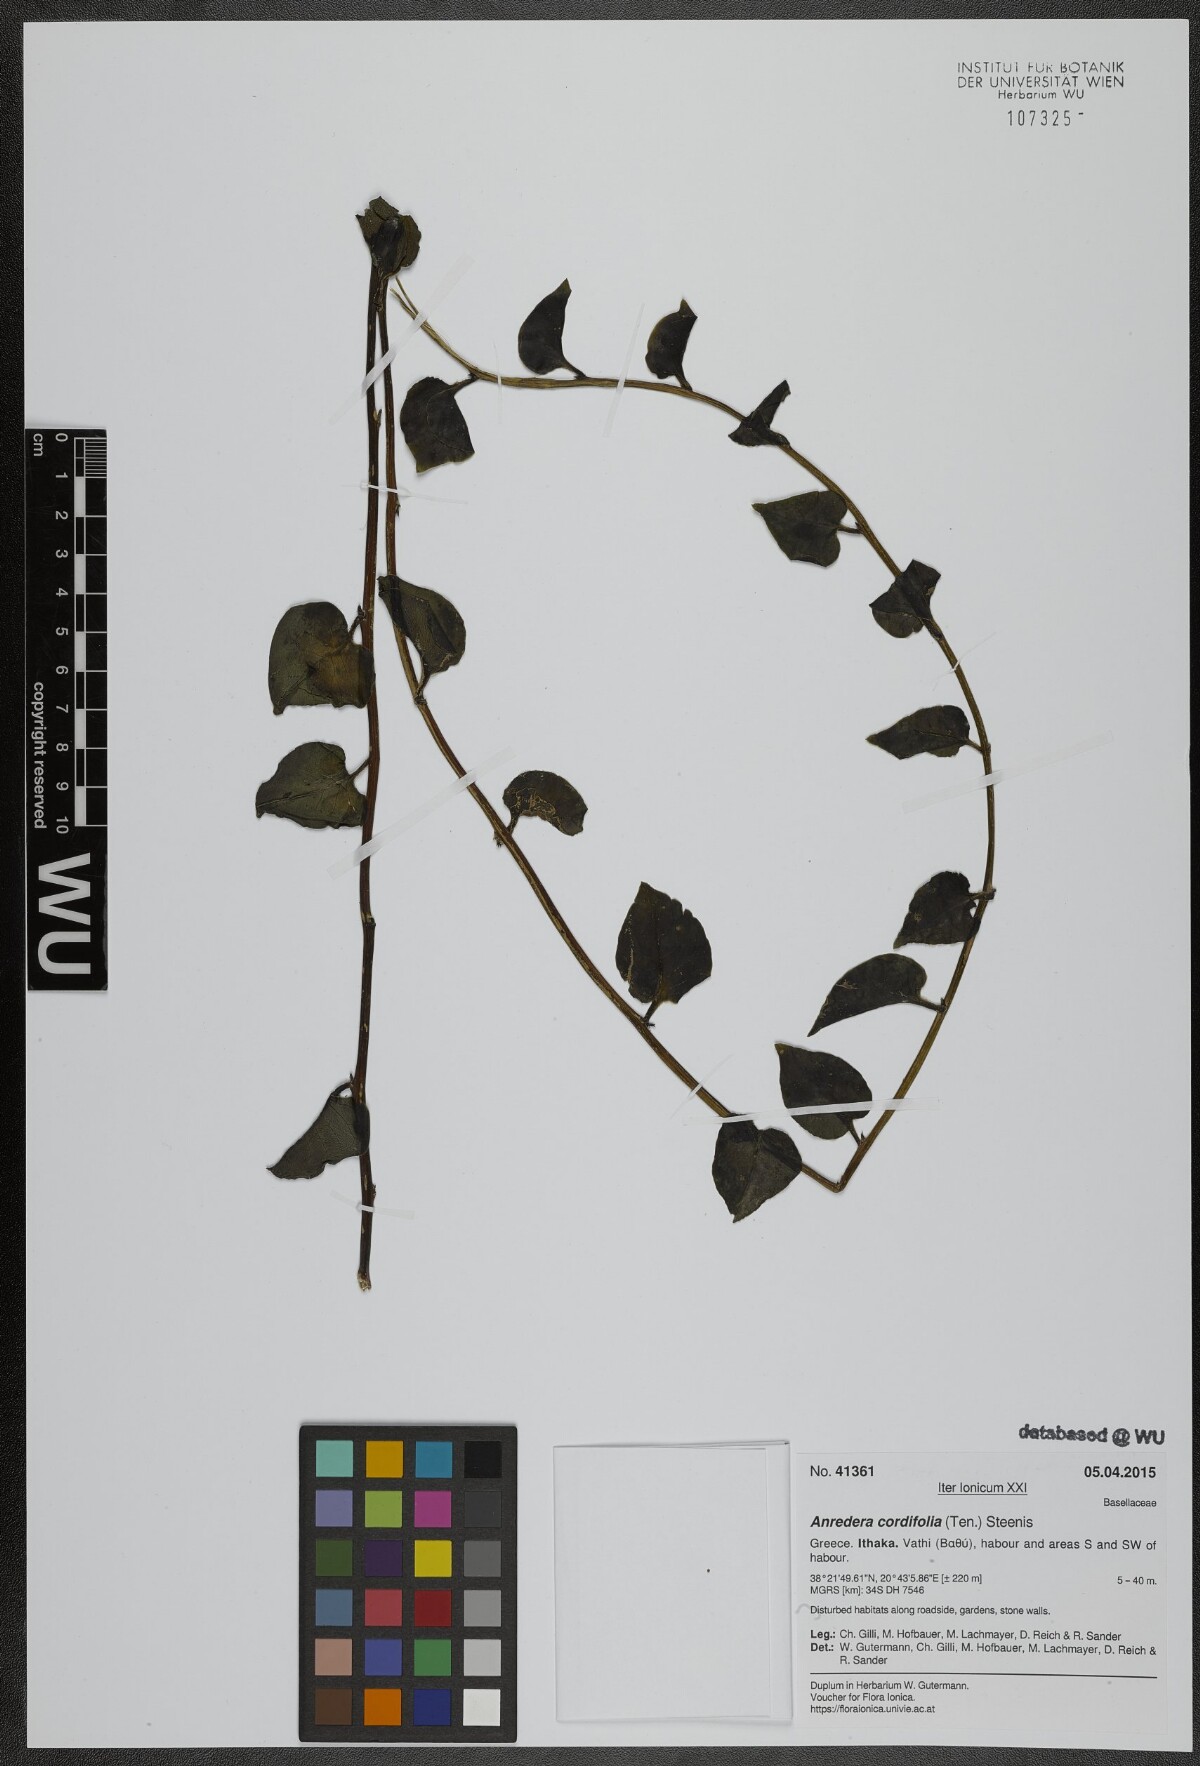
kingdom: Plantae
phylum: Tracheophyta
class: Magnoliopsida
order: Caryophyllales
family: Basellaceae
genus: Anredera
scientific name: Anredera cordifolia
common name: Heartleaf madeiravine
